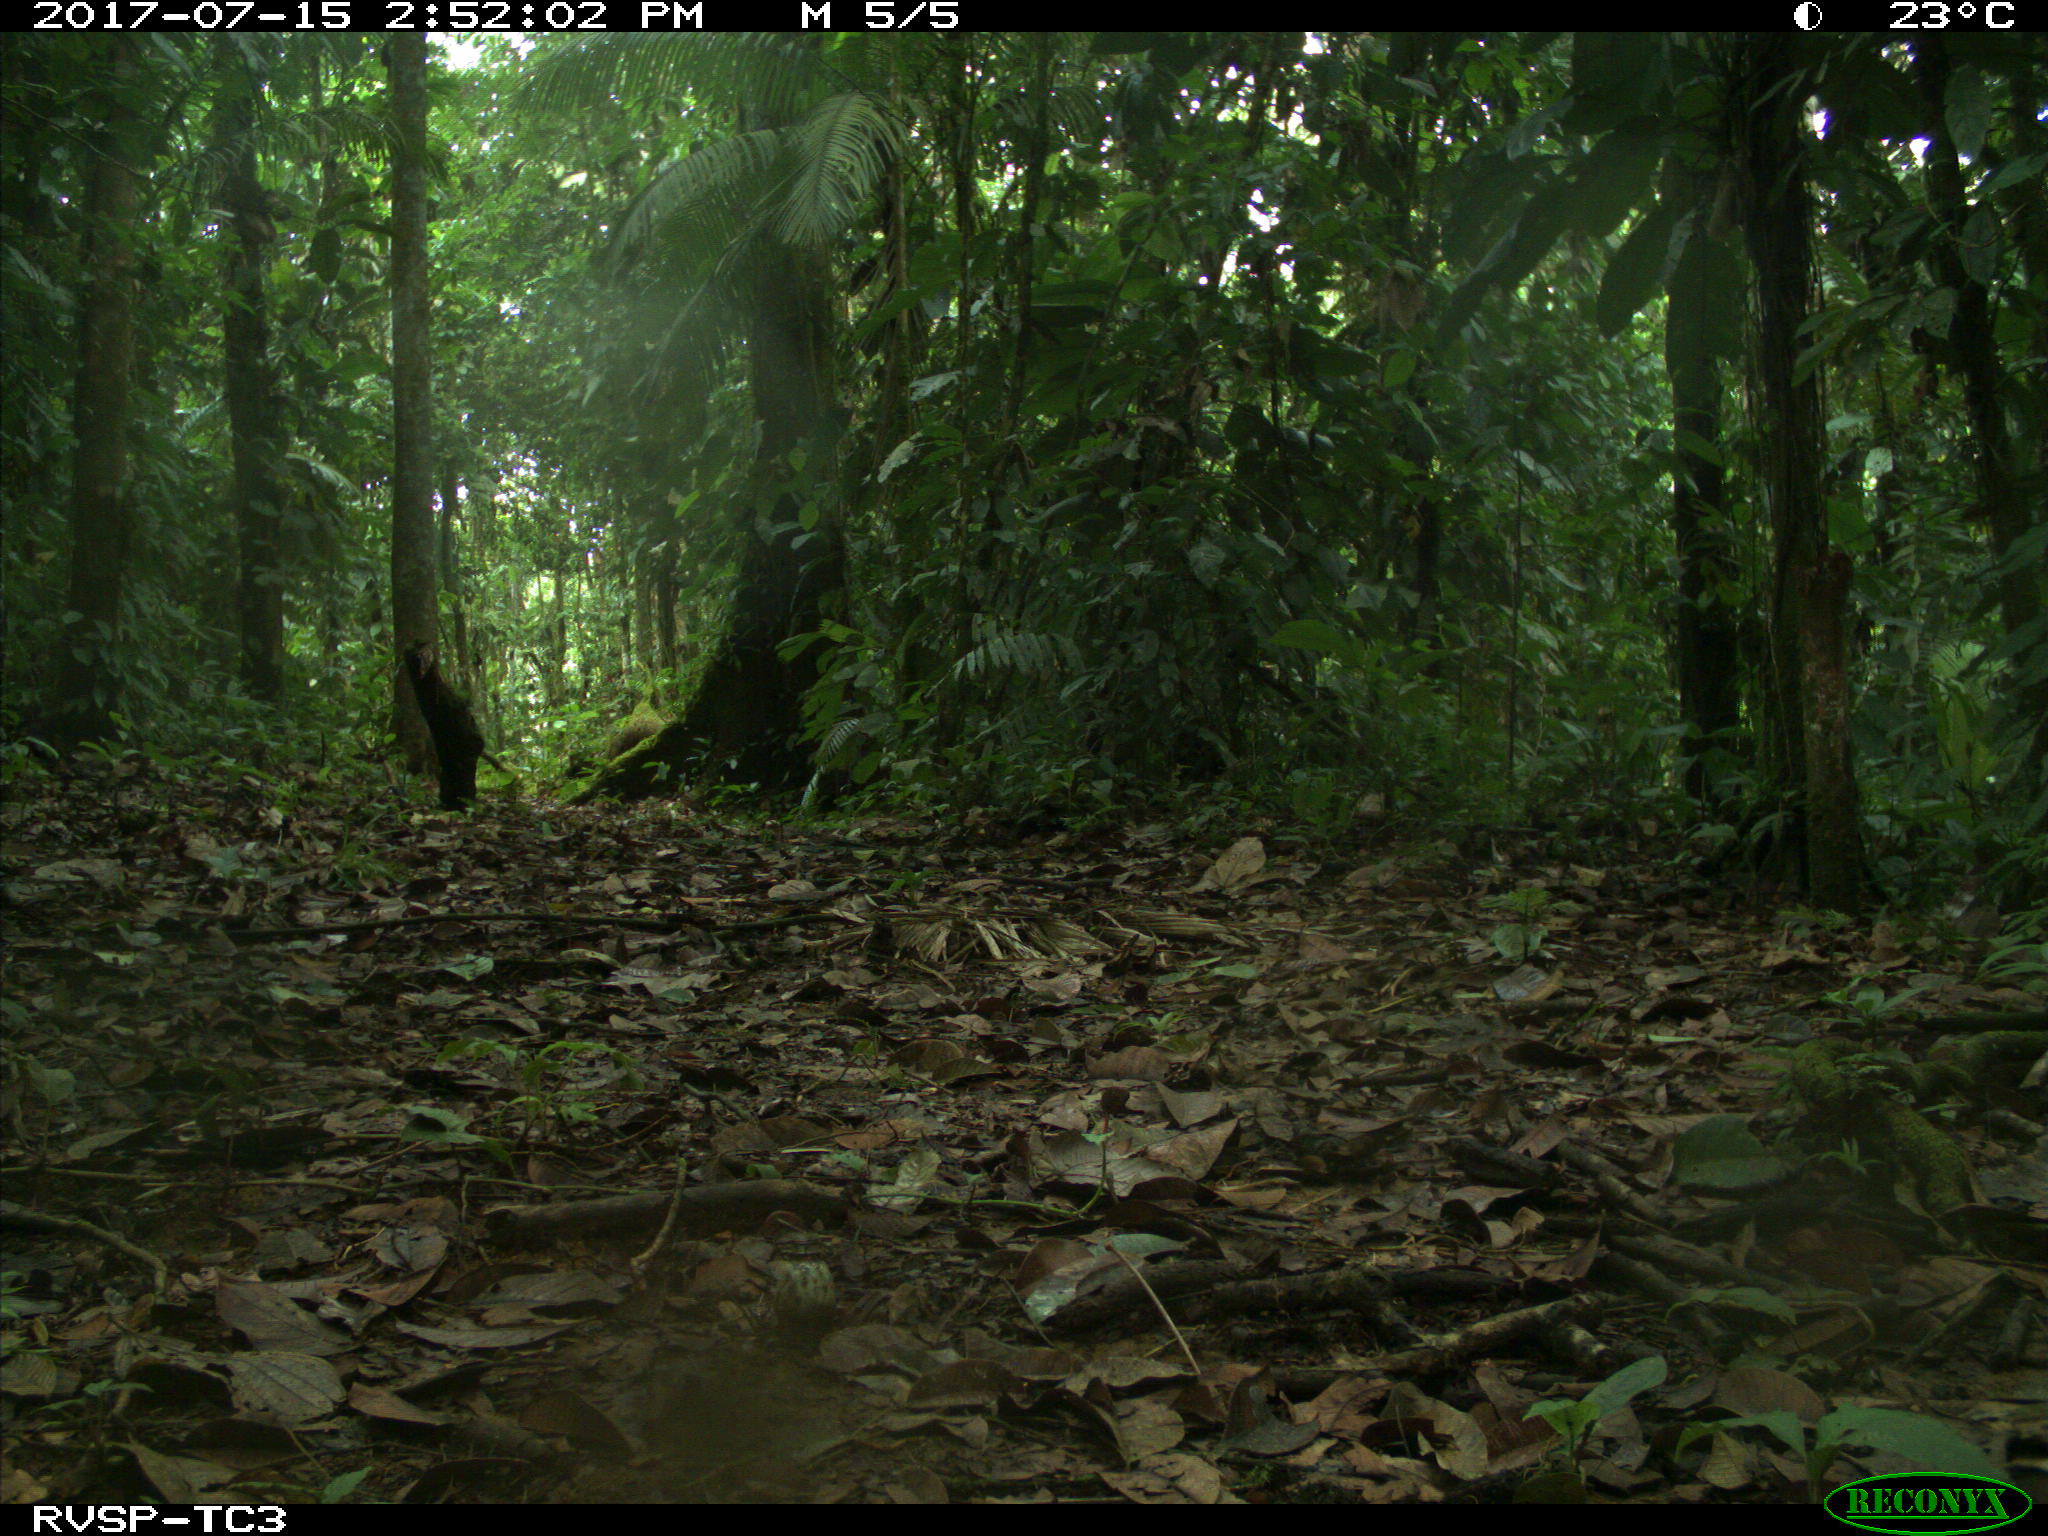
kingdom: Animalia
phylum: Chordata
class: Mammalia
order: Rodentia
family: Dasyproctidae
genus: Dasyprocta
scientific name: Dasyprocta punctata
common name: Central american agouti
